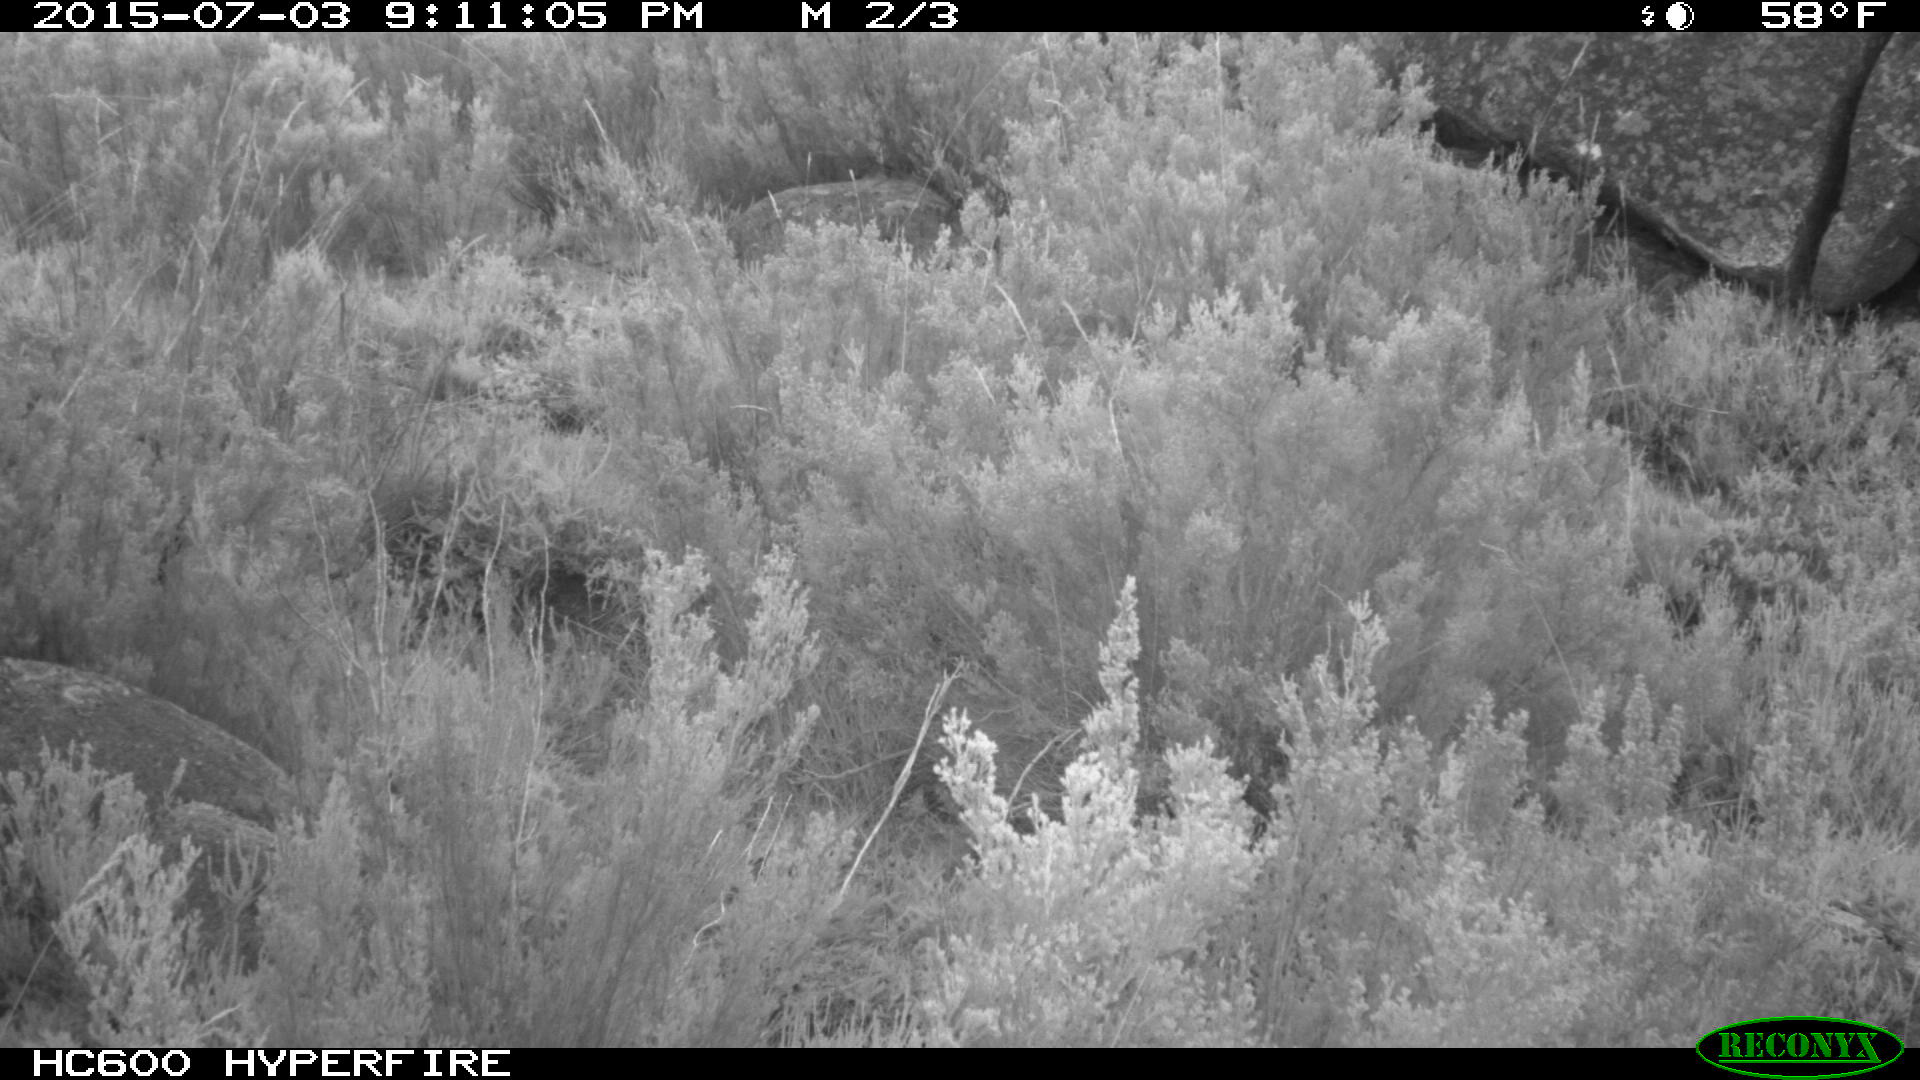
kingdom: Animalia
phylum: Chordata
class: Mammalia
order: Artiodactyla
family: Suidae
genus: Sus
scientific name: Sus scrofa
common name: Wild boar
